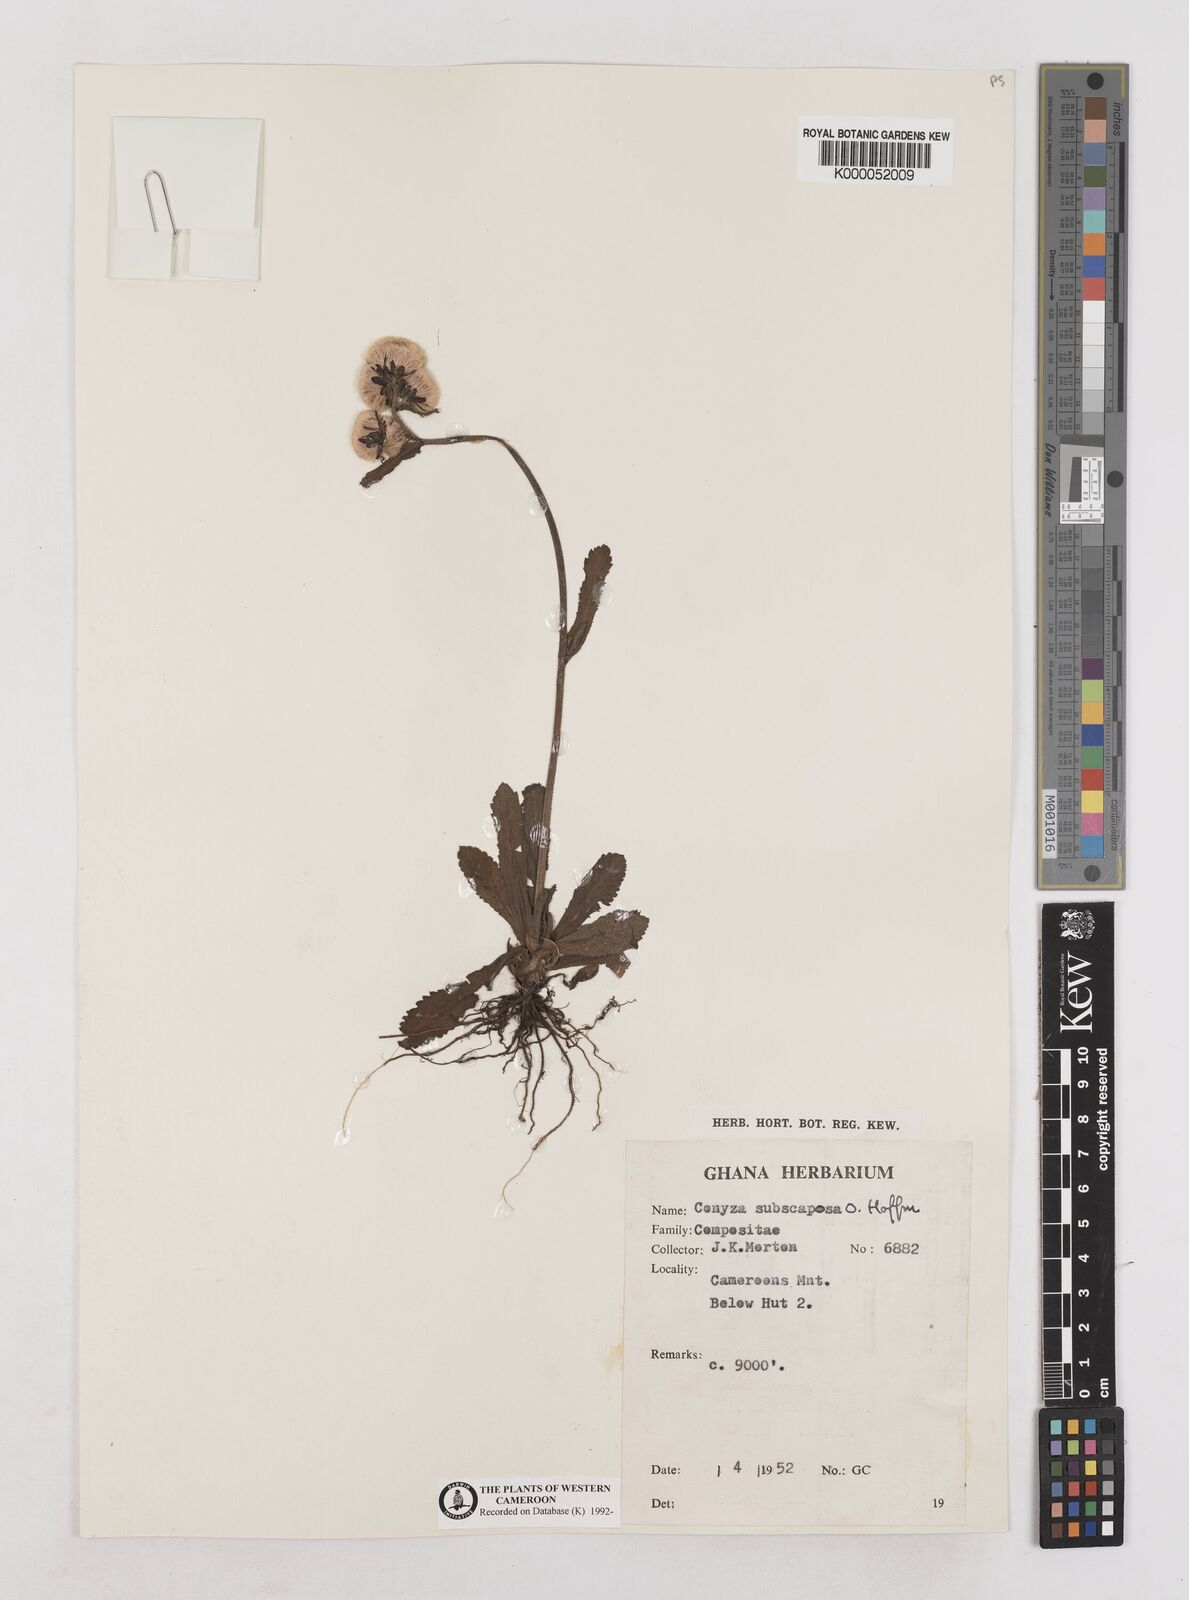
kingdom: Plantae
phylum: Tracheophyta
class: Magnoliopsida
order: Asterales
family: Asteraceae
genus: Eschenbachia
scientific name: Eschenbachia subscaposa
